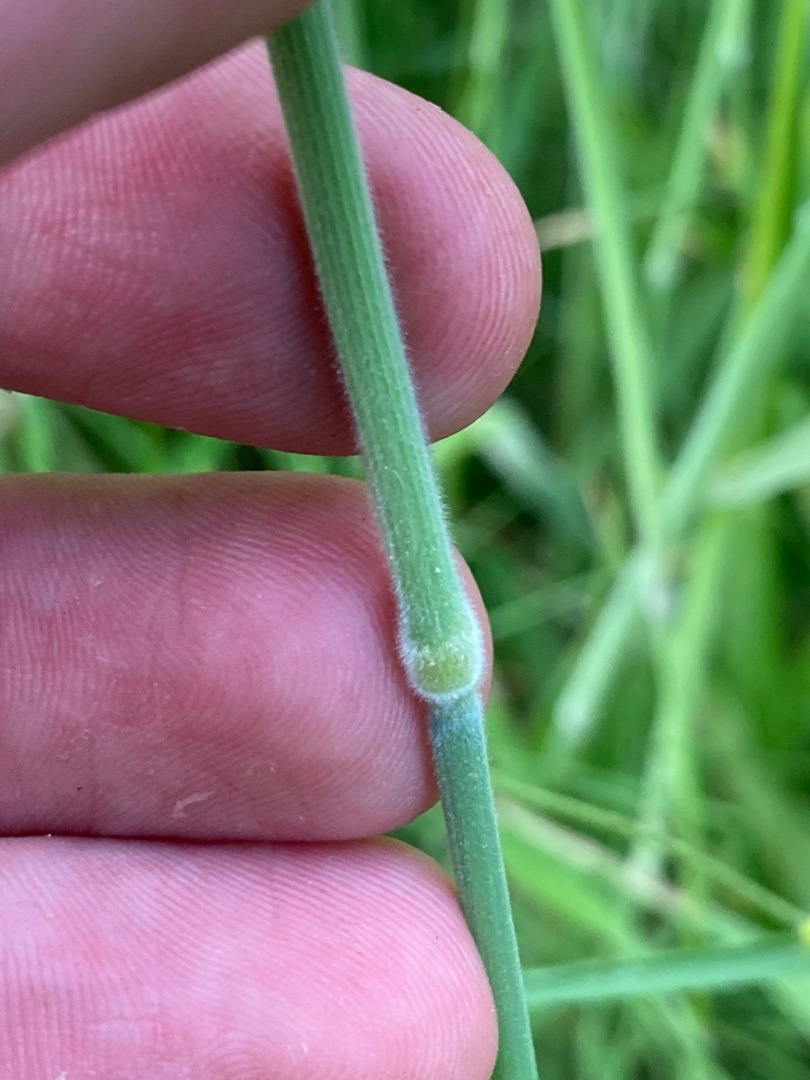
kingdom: Plantae
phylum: Tracheophyta
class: Liliopsida
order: Poales
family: Poaceae
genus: Holcus
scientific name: Holcus lanatus
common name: Fløjlsgræs
